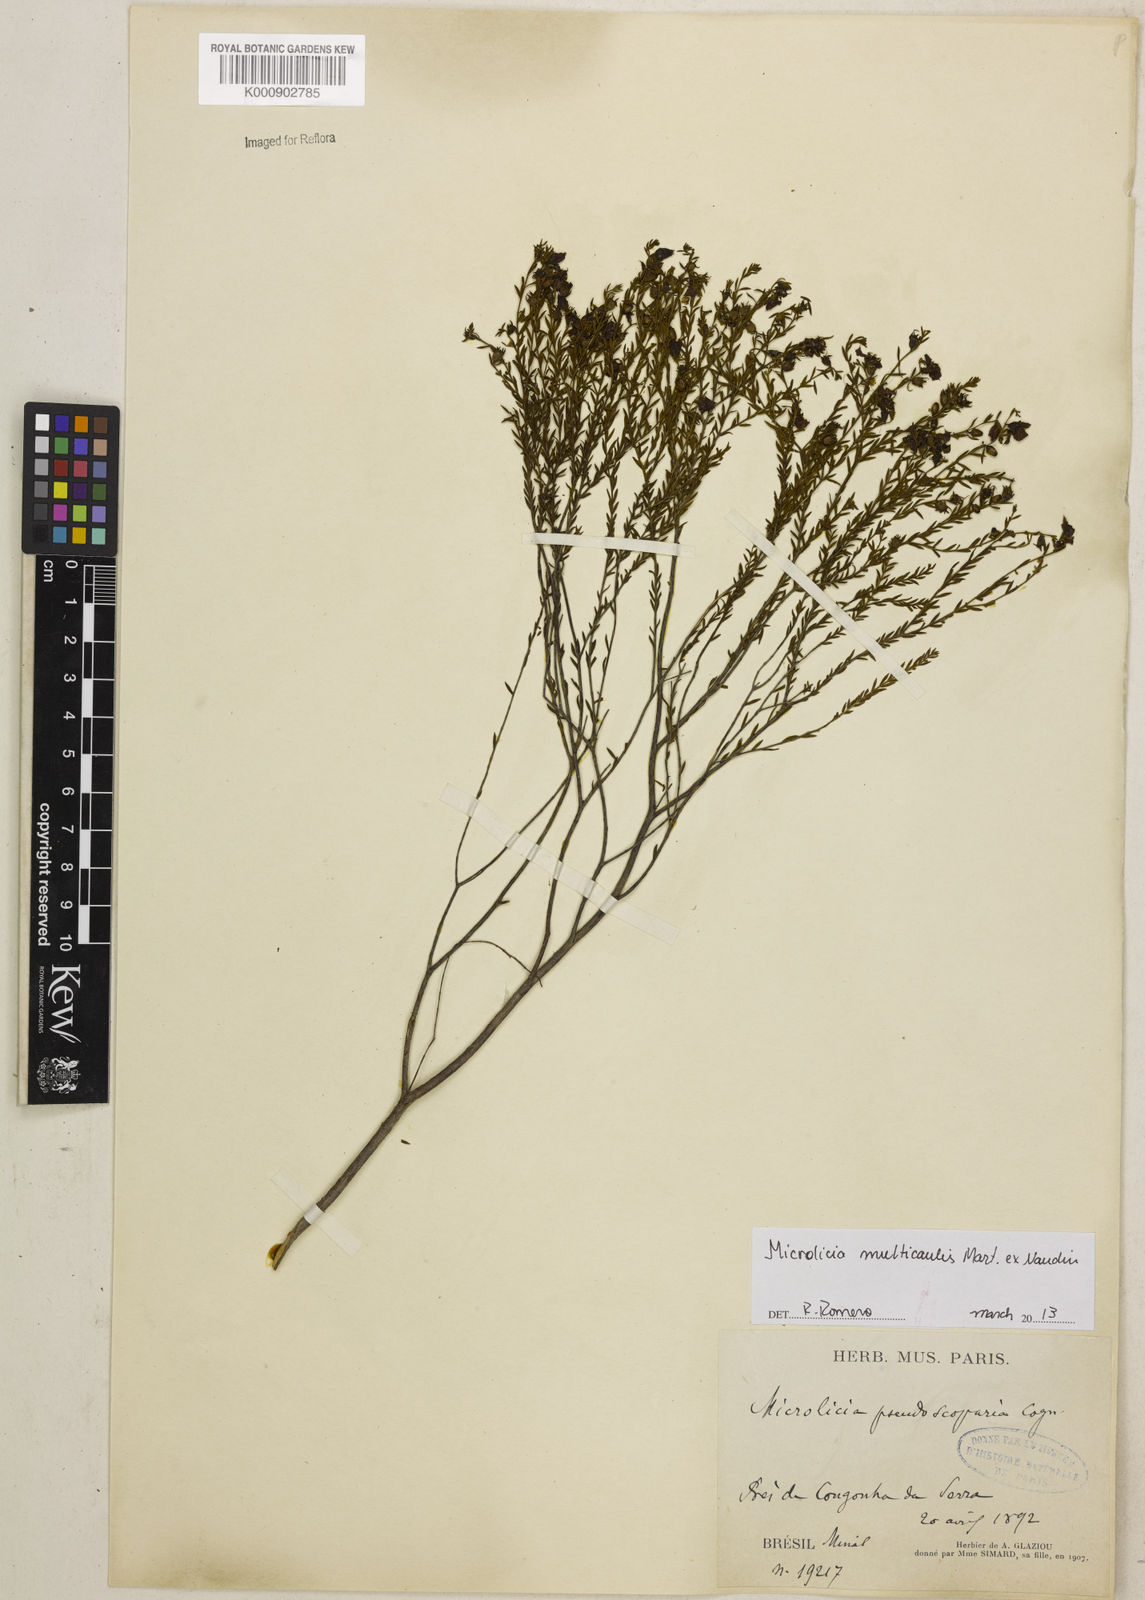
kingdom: Plantae
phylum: Tracheophyta
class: Magnoliopsida
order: Myrtales
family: Melastomataceae
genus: Microlicia
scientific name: Microlicia multicaulis
